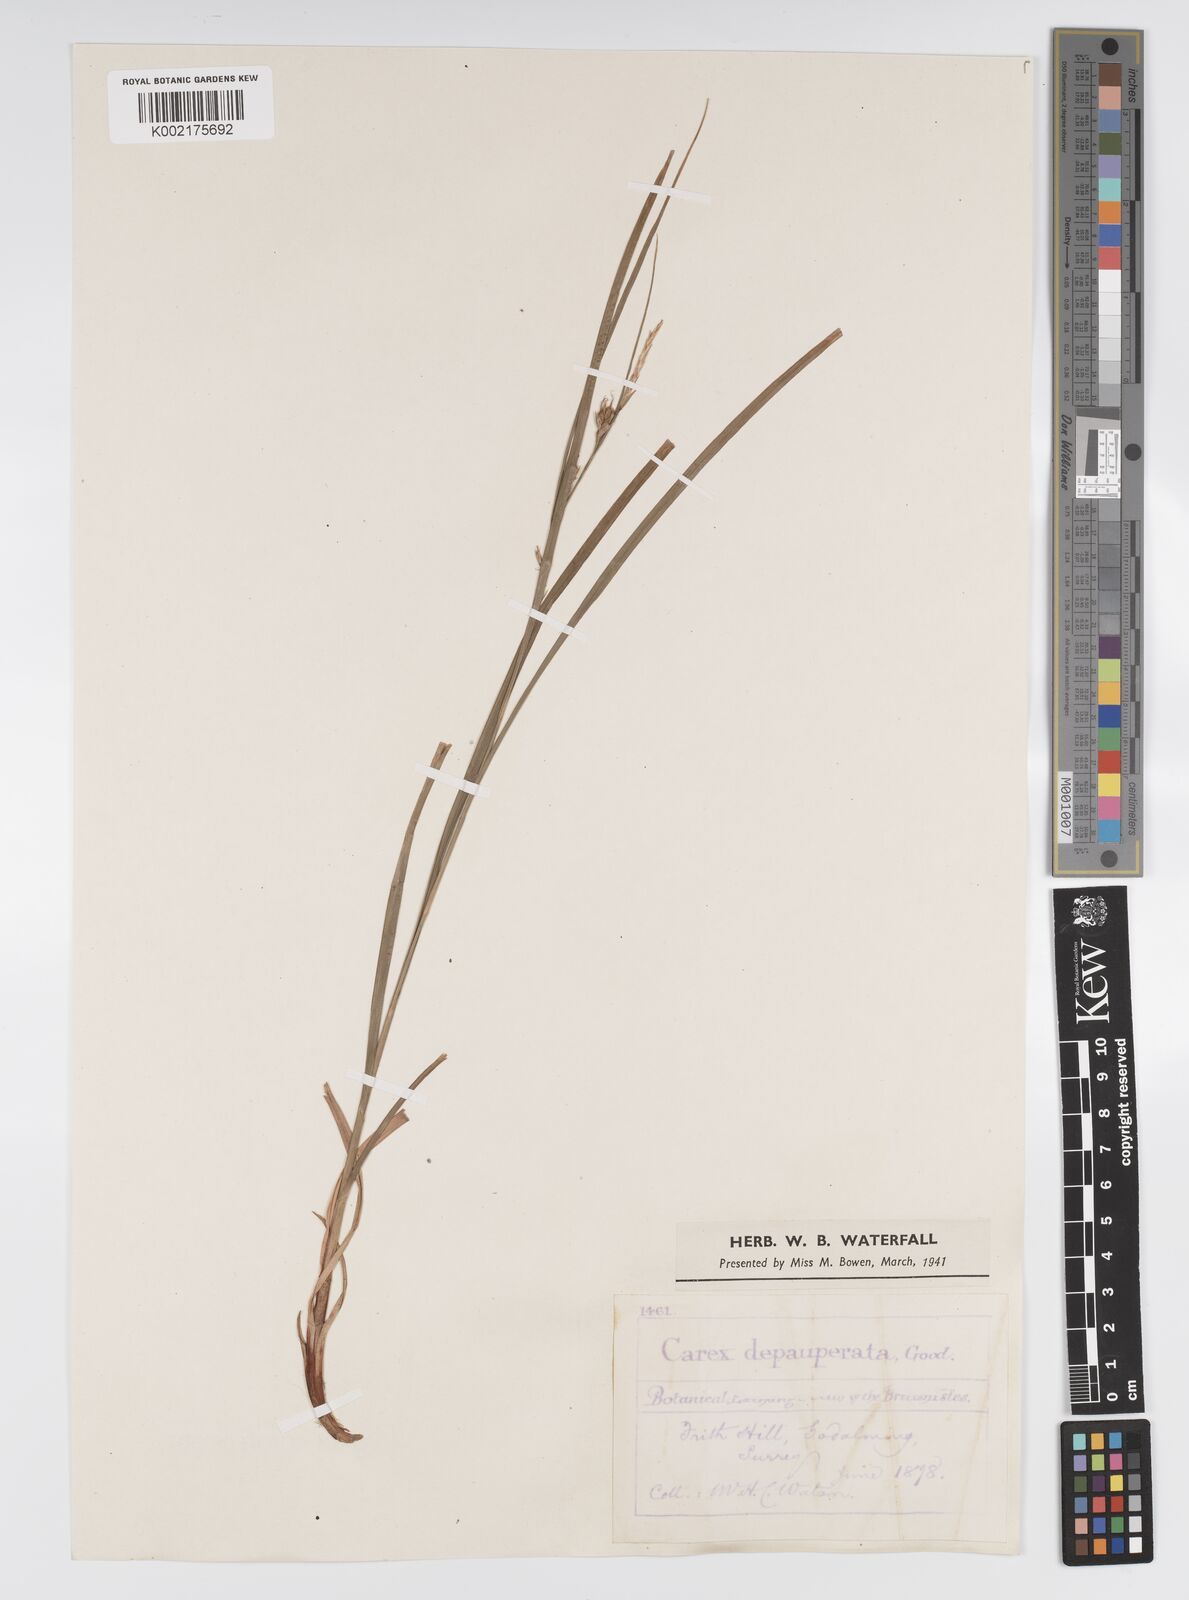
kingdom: Plantae
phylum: Tracheophyta
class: Liliopsida
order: Poales
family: Cyperaceae
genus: Carex
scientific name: Carex vaginata
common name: Sheathed sedge
